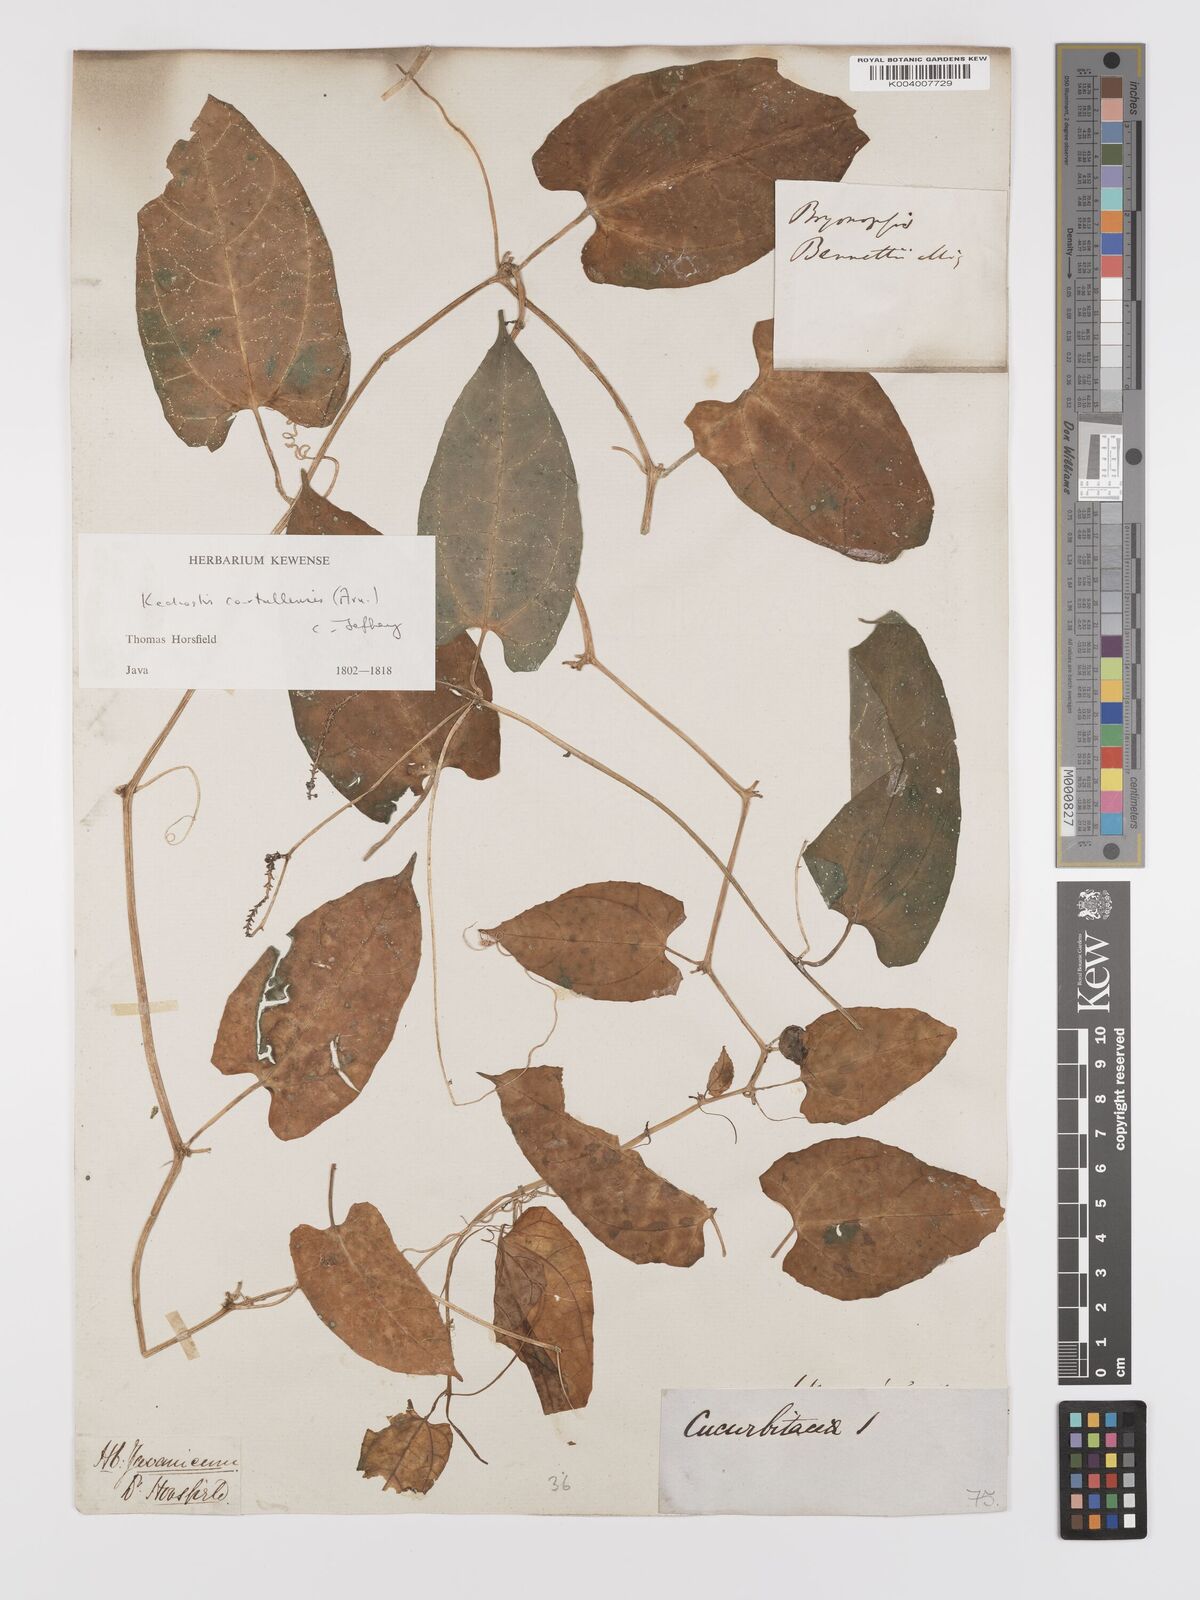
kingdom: Plantae
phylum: Tracheophyta
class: Magnoliopsida
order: Cucurbitales
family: Cucurbitaceae
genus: Kedrostis
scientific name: Kedrostis courtallensis
